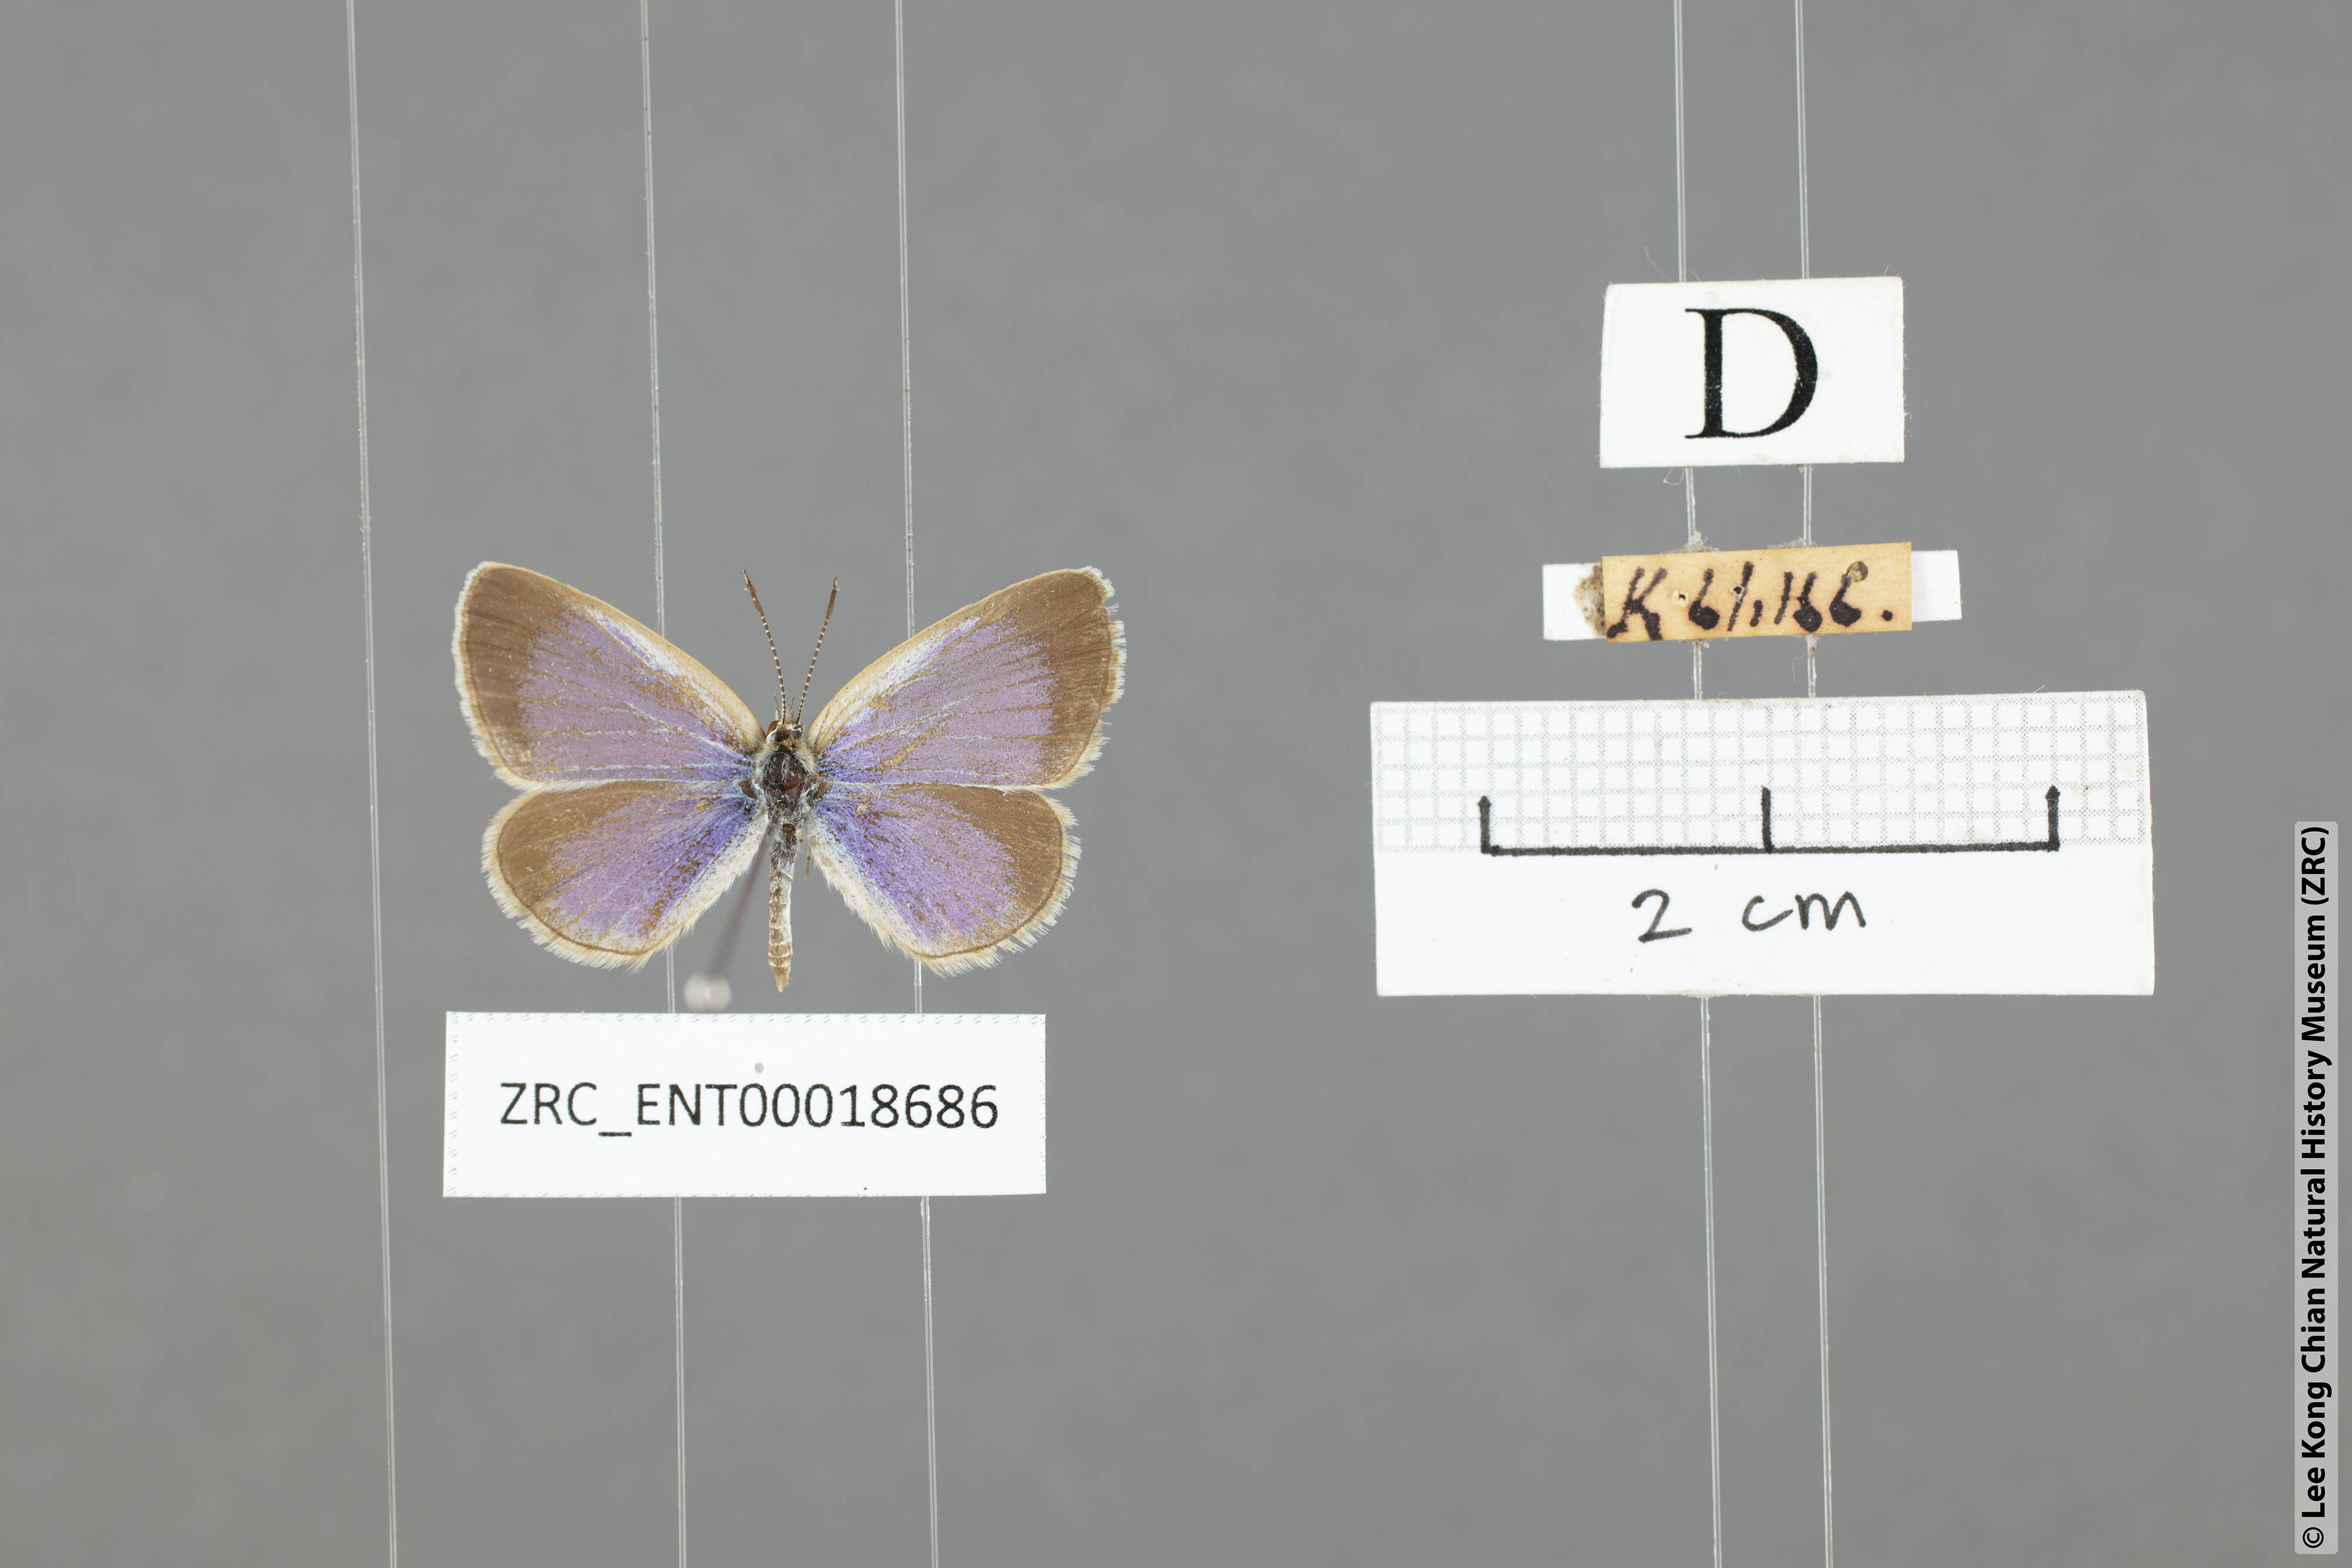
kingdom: Animalia
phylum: Arthropoda
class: Insecta
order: Lepidoptera
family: Lycaenidae
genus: Zizina
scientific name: Zizina otis
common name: Lesser grass blue
